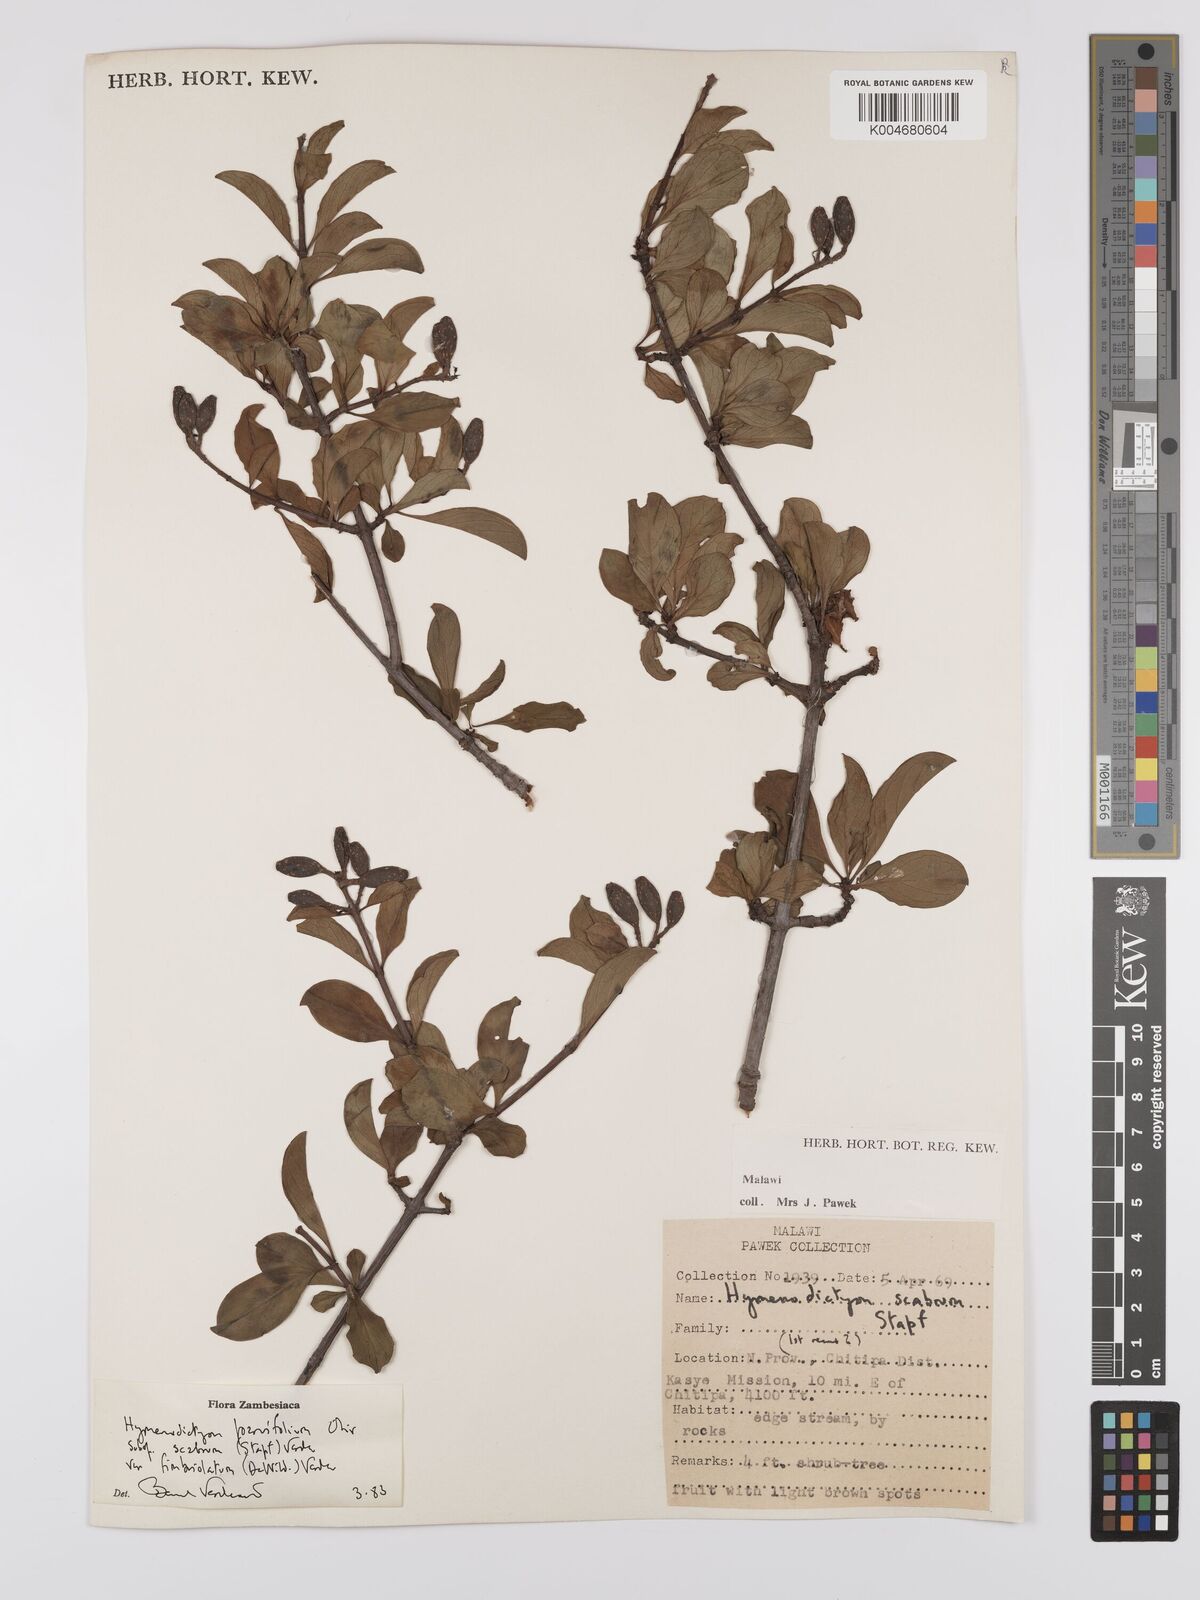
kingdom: Plantae
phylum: Tracheophyta
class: Magnoliopsida
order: Gentianales
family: Rubiaceae
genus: Hymenodictyon
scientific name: Hymenodictyon scabrum
